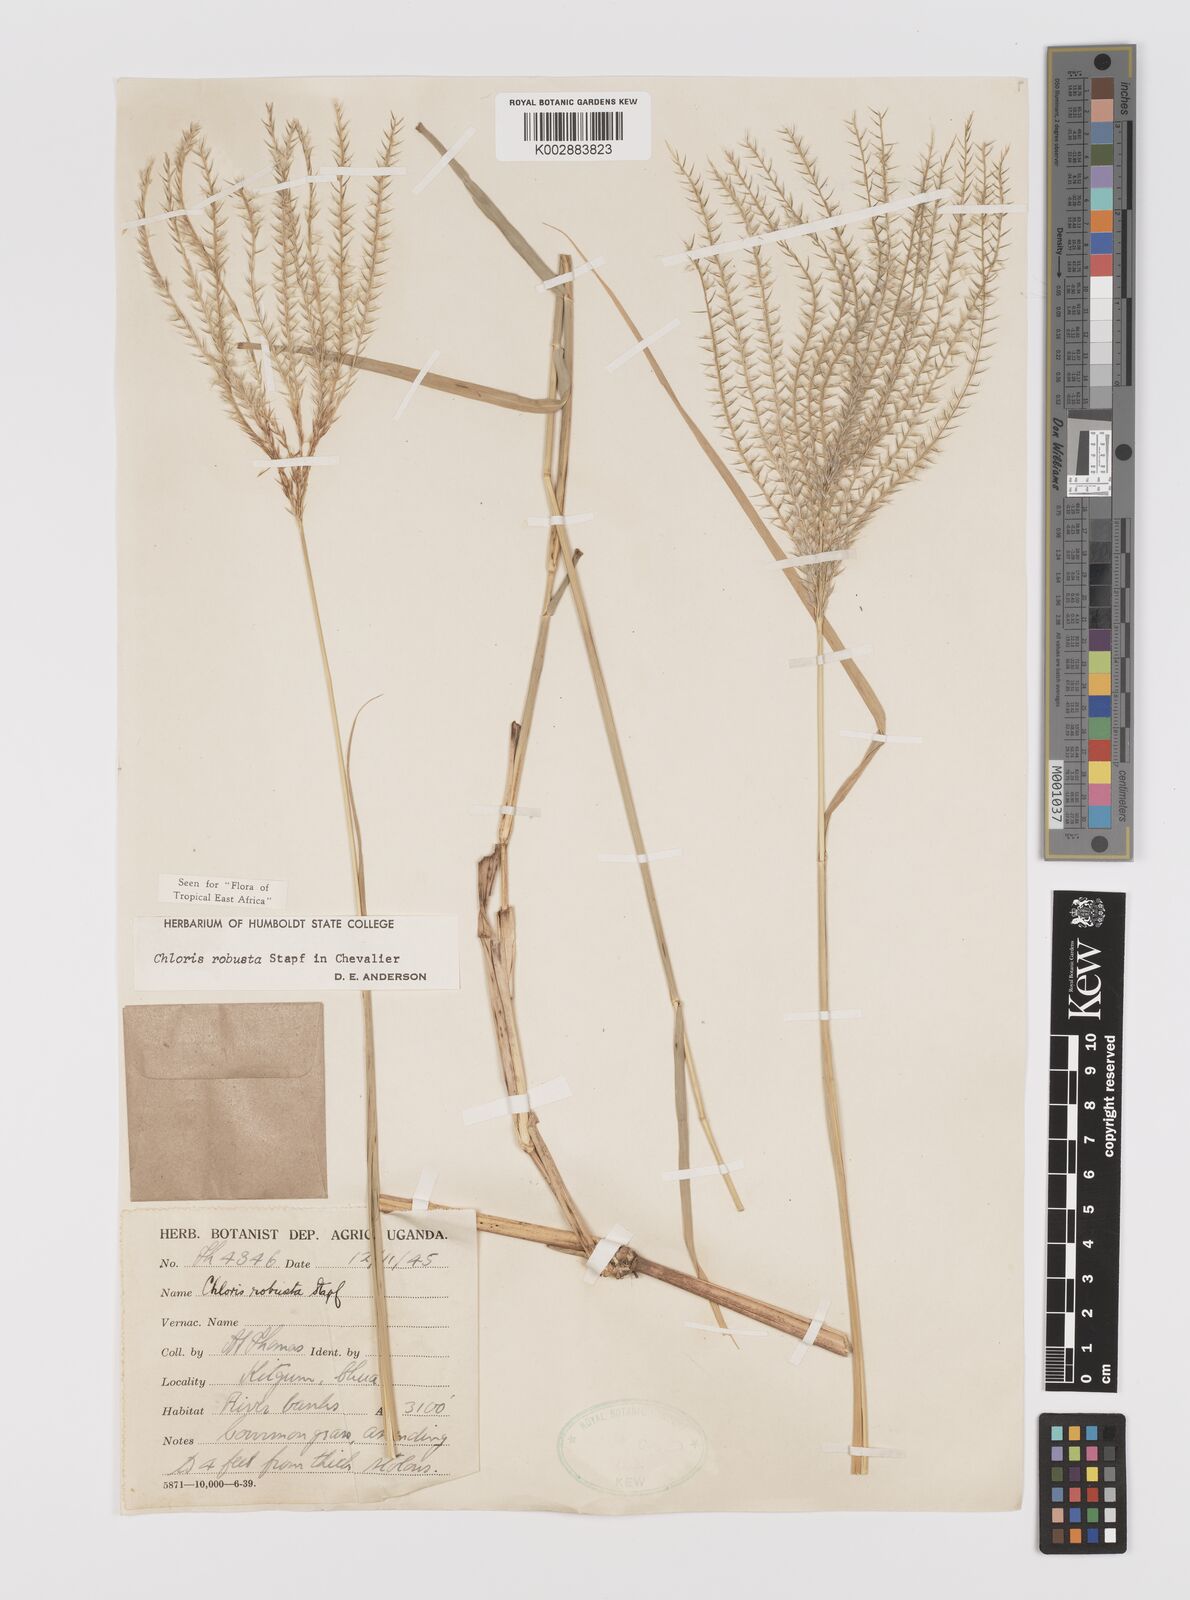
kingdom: Plantae
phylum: Tracheophyta
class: Liliopsida
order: Poales
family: Poaceae
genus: Chloris
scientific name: Chloris robusta
